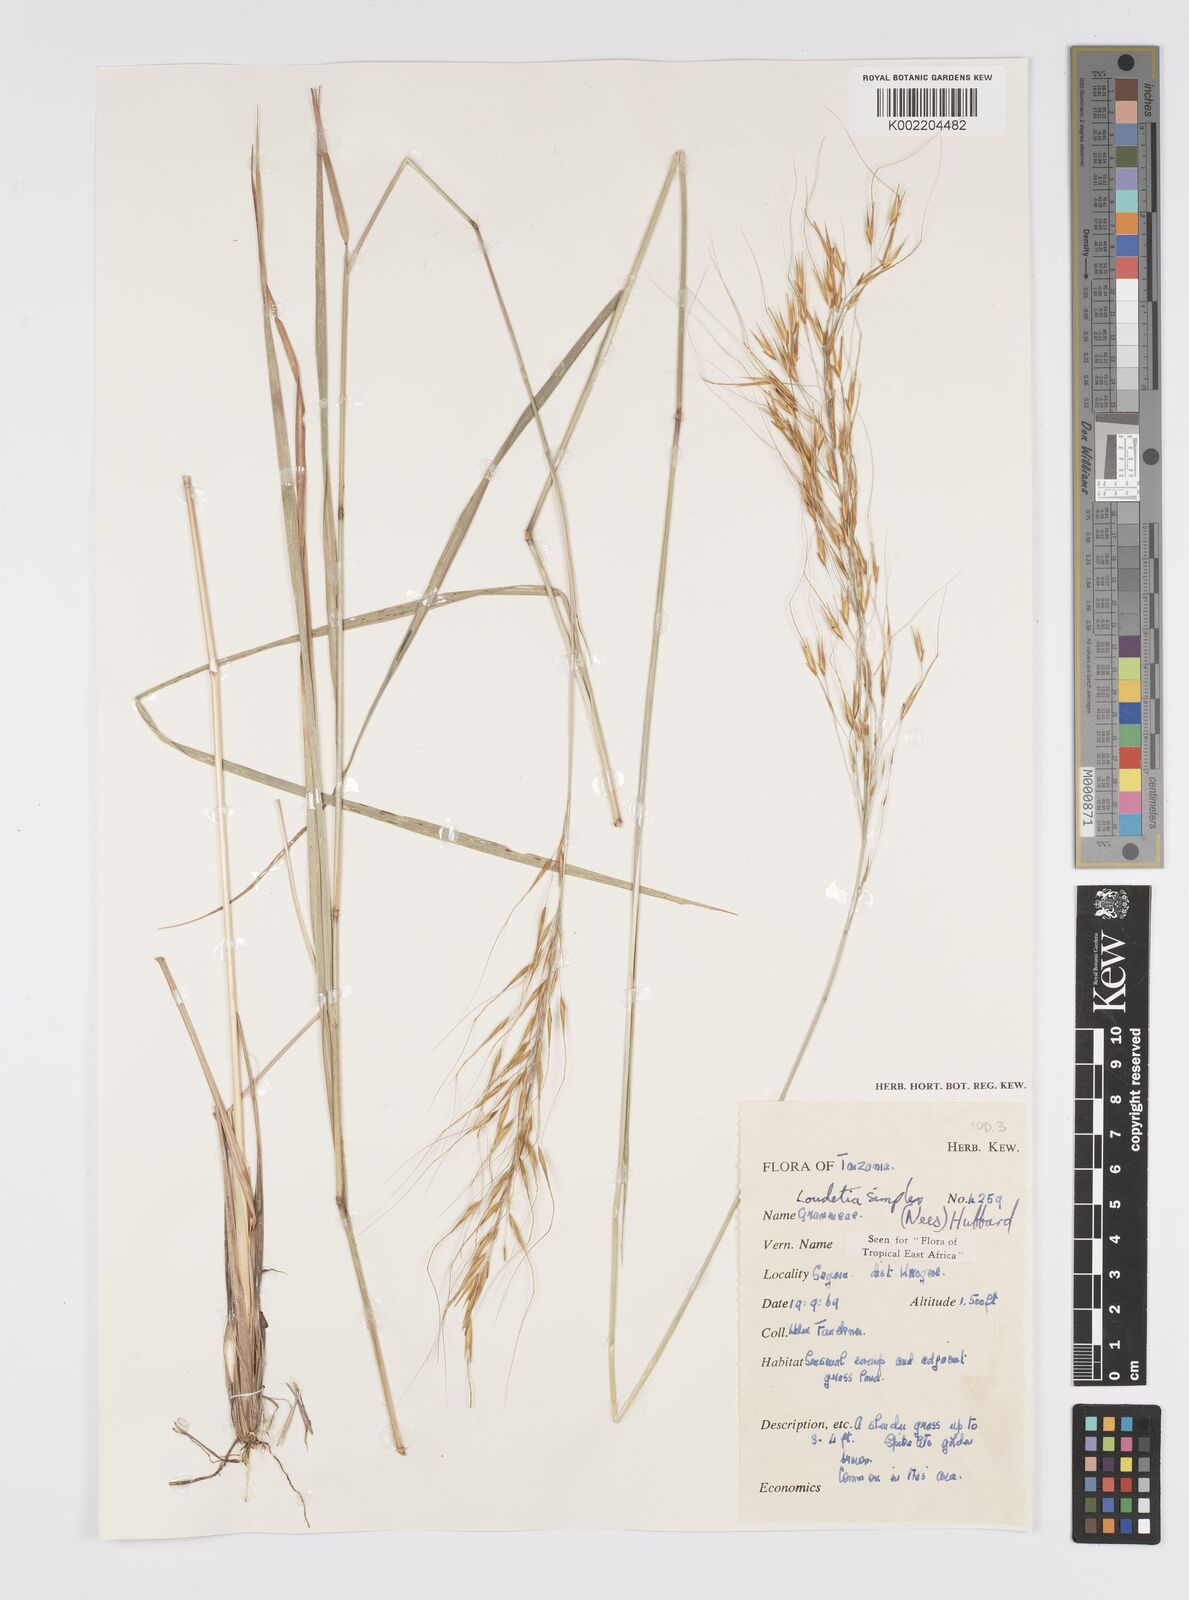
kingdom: Plantae
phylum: Tracheophyta
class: Liliopsida
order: Poales
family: Poaceae
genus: Loudetia
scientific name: Loudetia simplex
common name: Common russet grass
